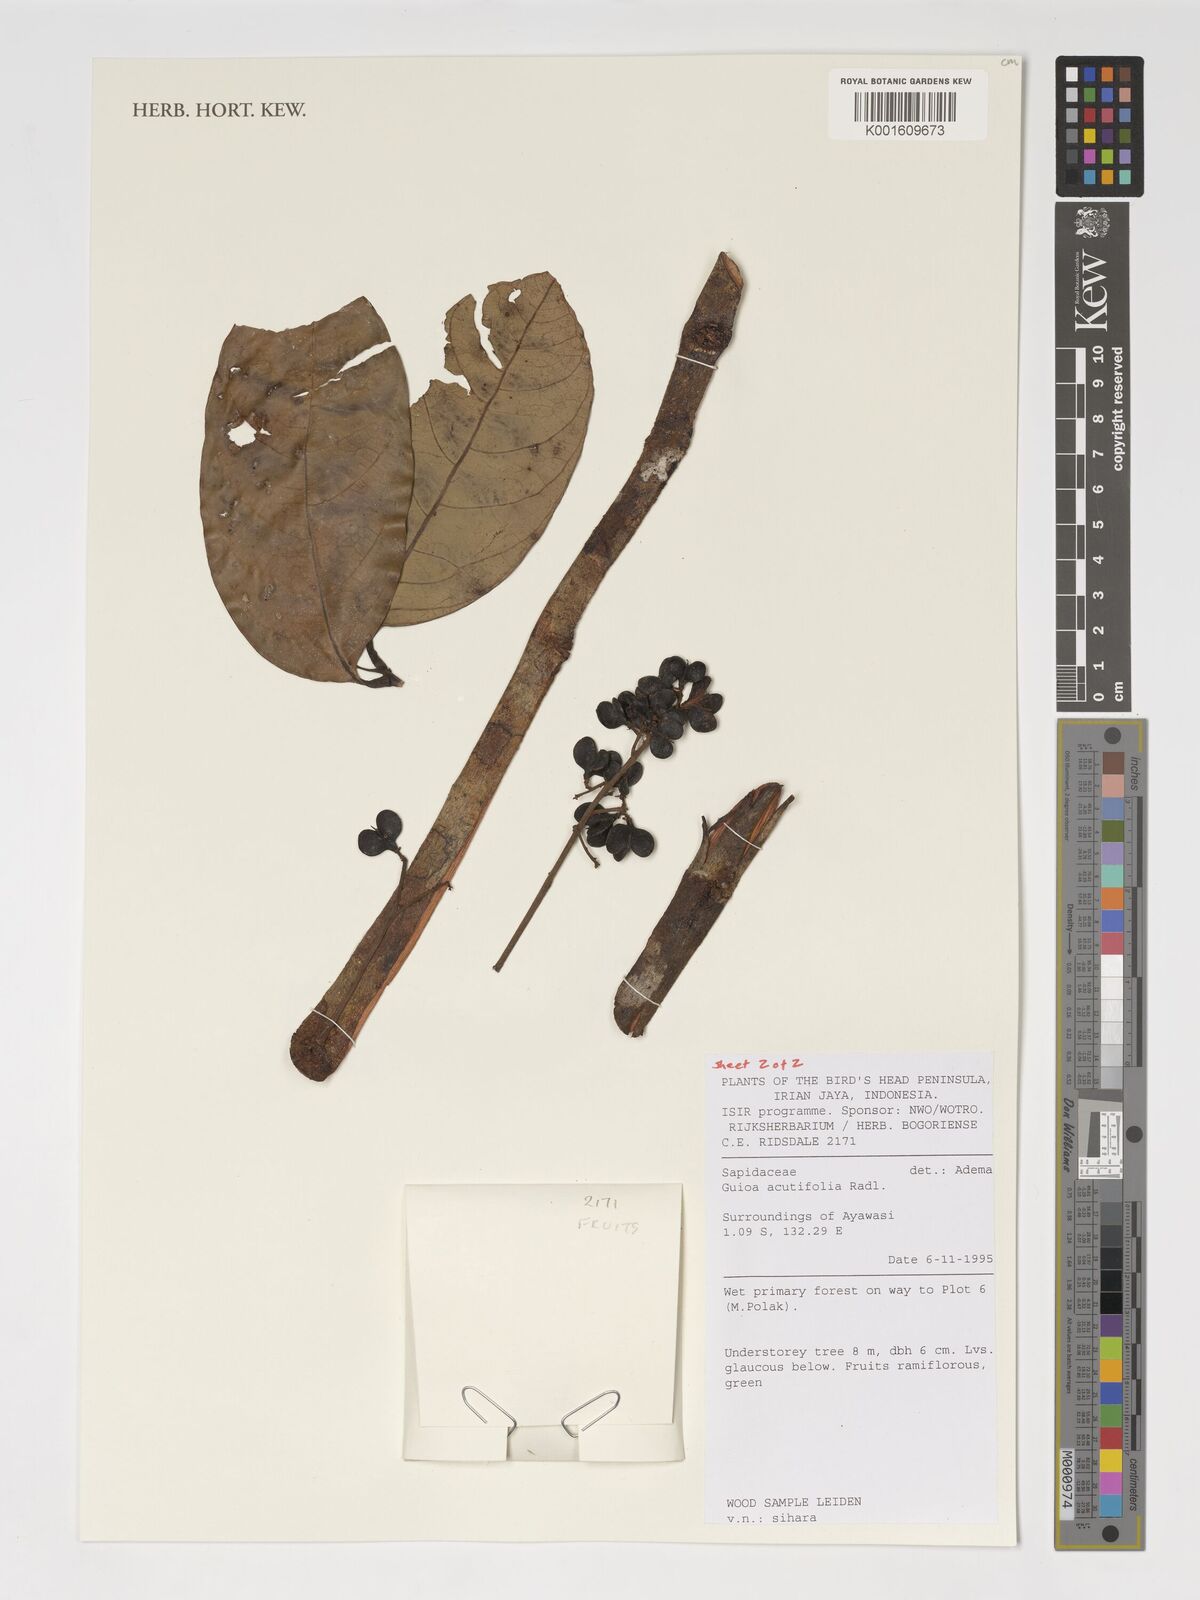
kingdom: Plantae
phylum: Tracheophyta
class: Magnoliopsida
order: Sapindales
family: Sapindaceae
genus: Guioa
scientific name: Guioa acutifolia
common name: Northern guioa
